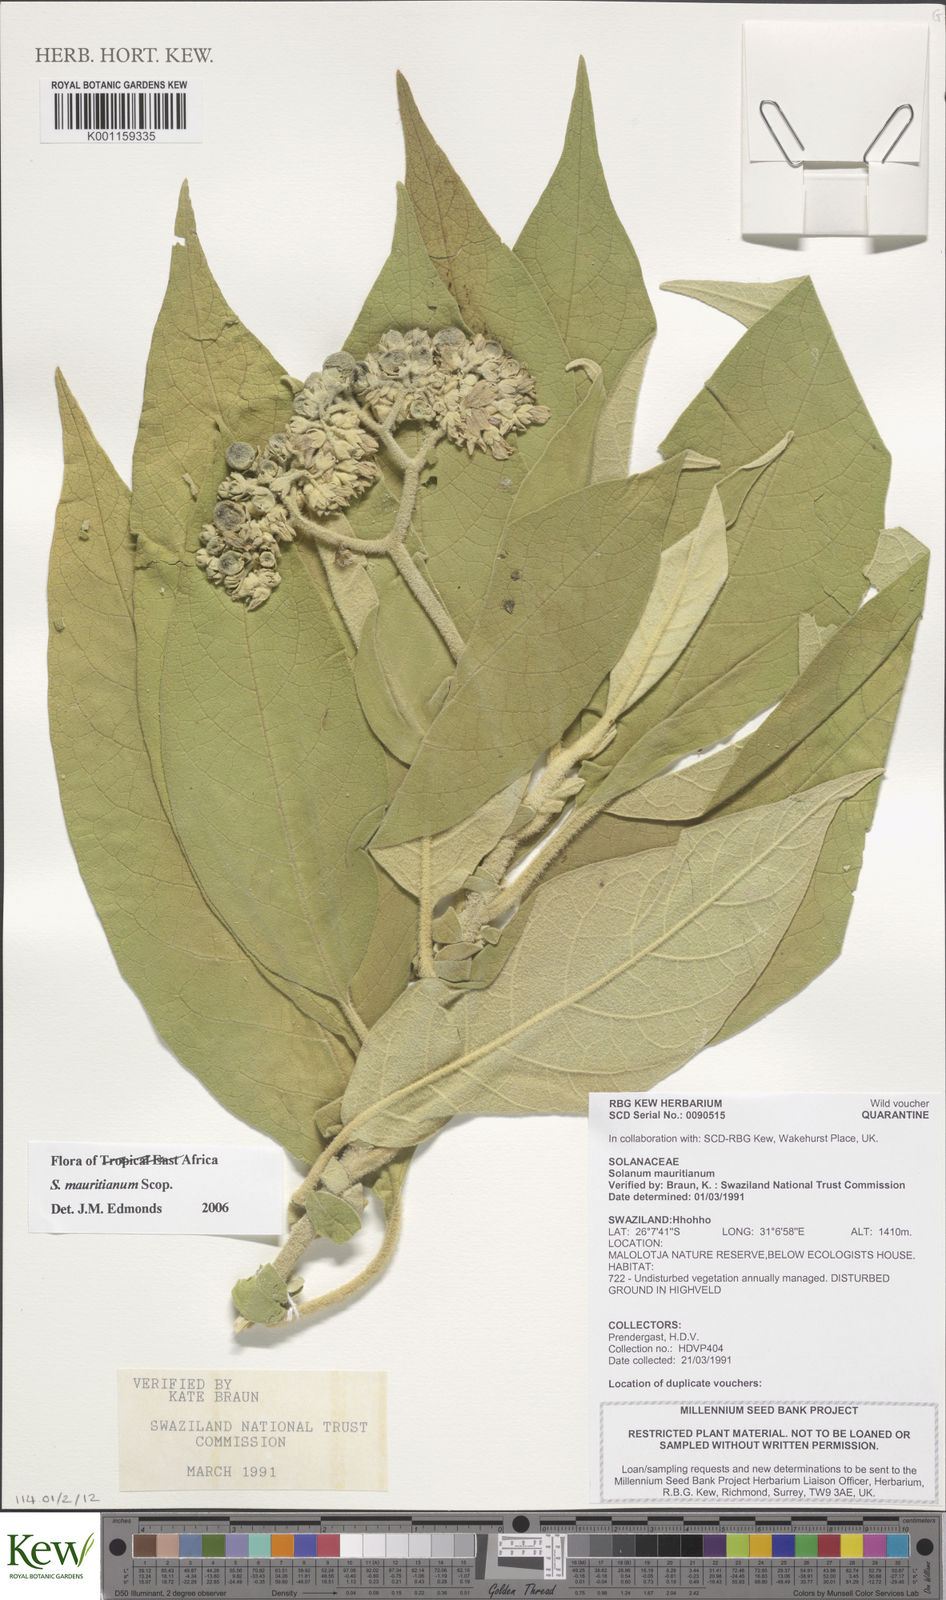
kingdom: Plantae
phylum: Tracheophyta
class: Magnoliopsida
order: Solanales
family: Solanaceae
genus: Solanum
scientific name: Solanum mauritianum
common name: Earleaf nightshade
